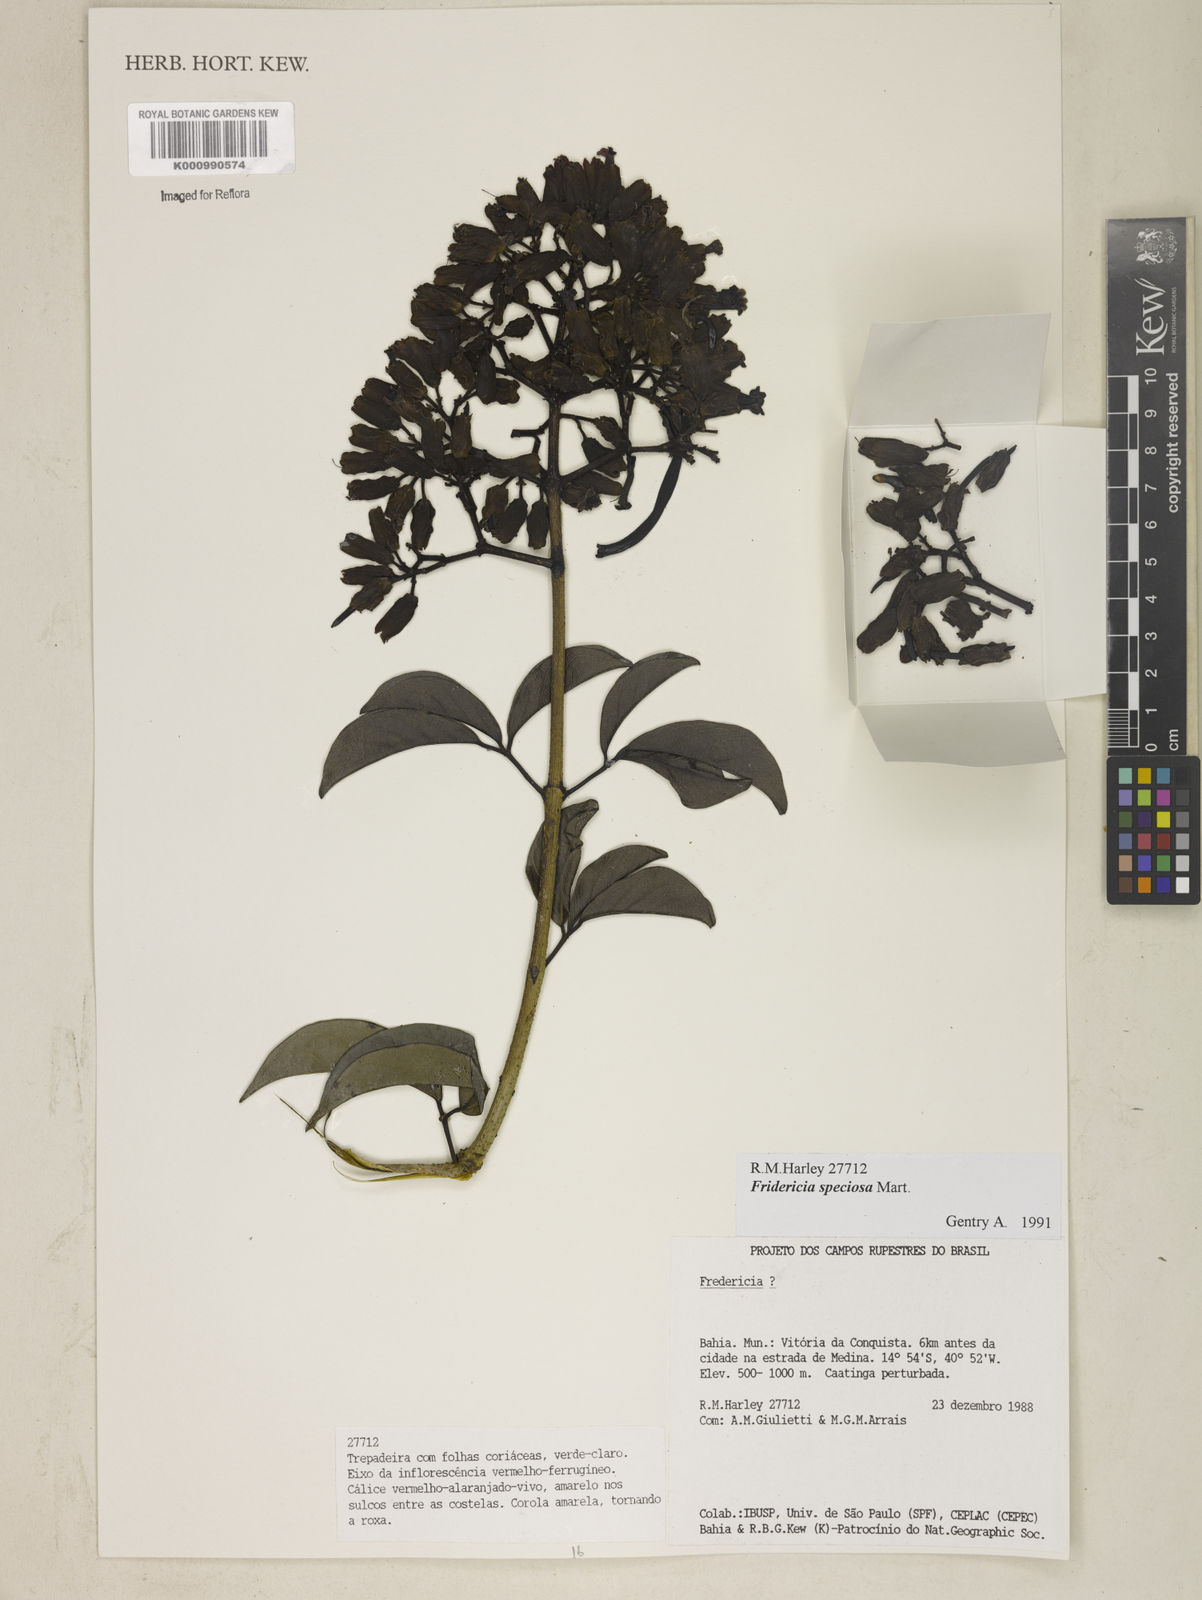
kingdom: Plantae
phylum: Tracheophyta
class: Magnoliopsida
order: Lamiales
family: Bignoniaceae
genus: Fridericia
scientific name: Fridericia speciosa
